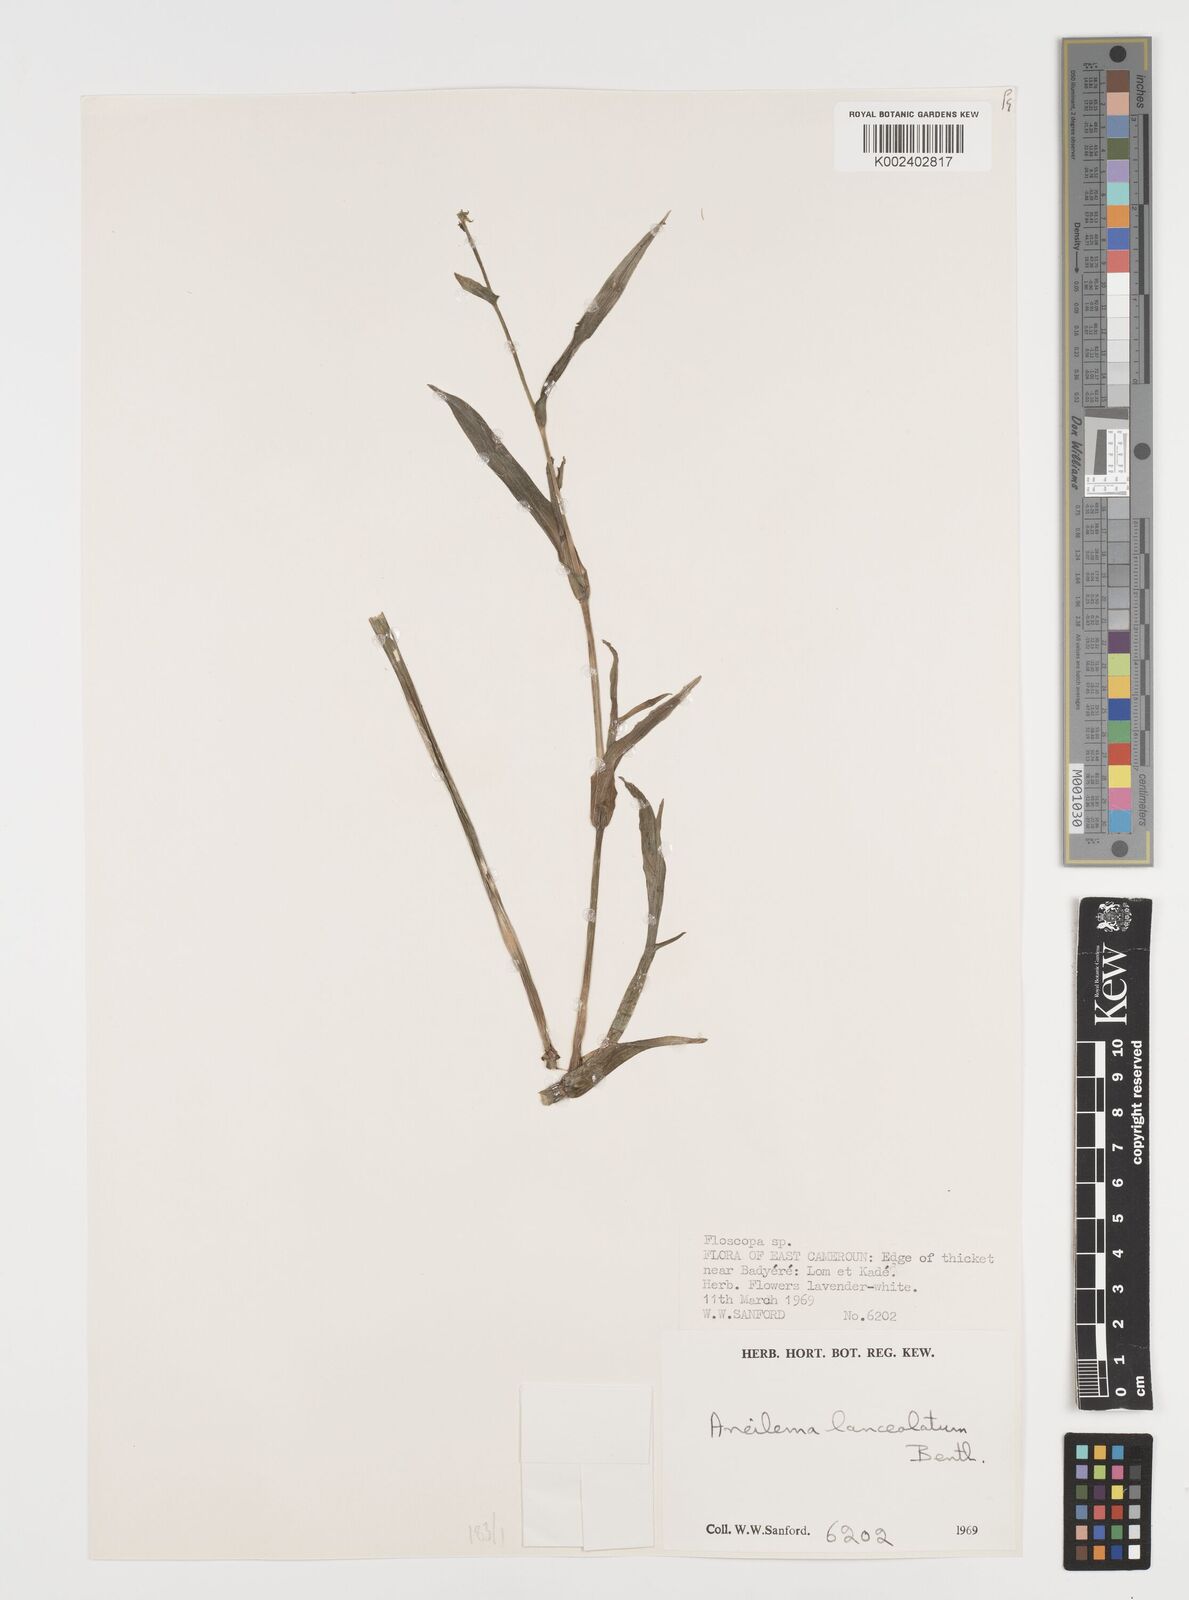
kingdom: Plantae
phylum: Tracheophyta
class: Liliopsida
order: Commelinales
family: Commelinaceae
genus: Aneilema
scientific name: Aneilema lanceolatum
